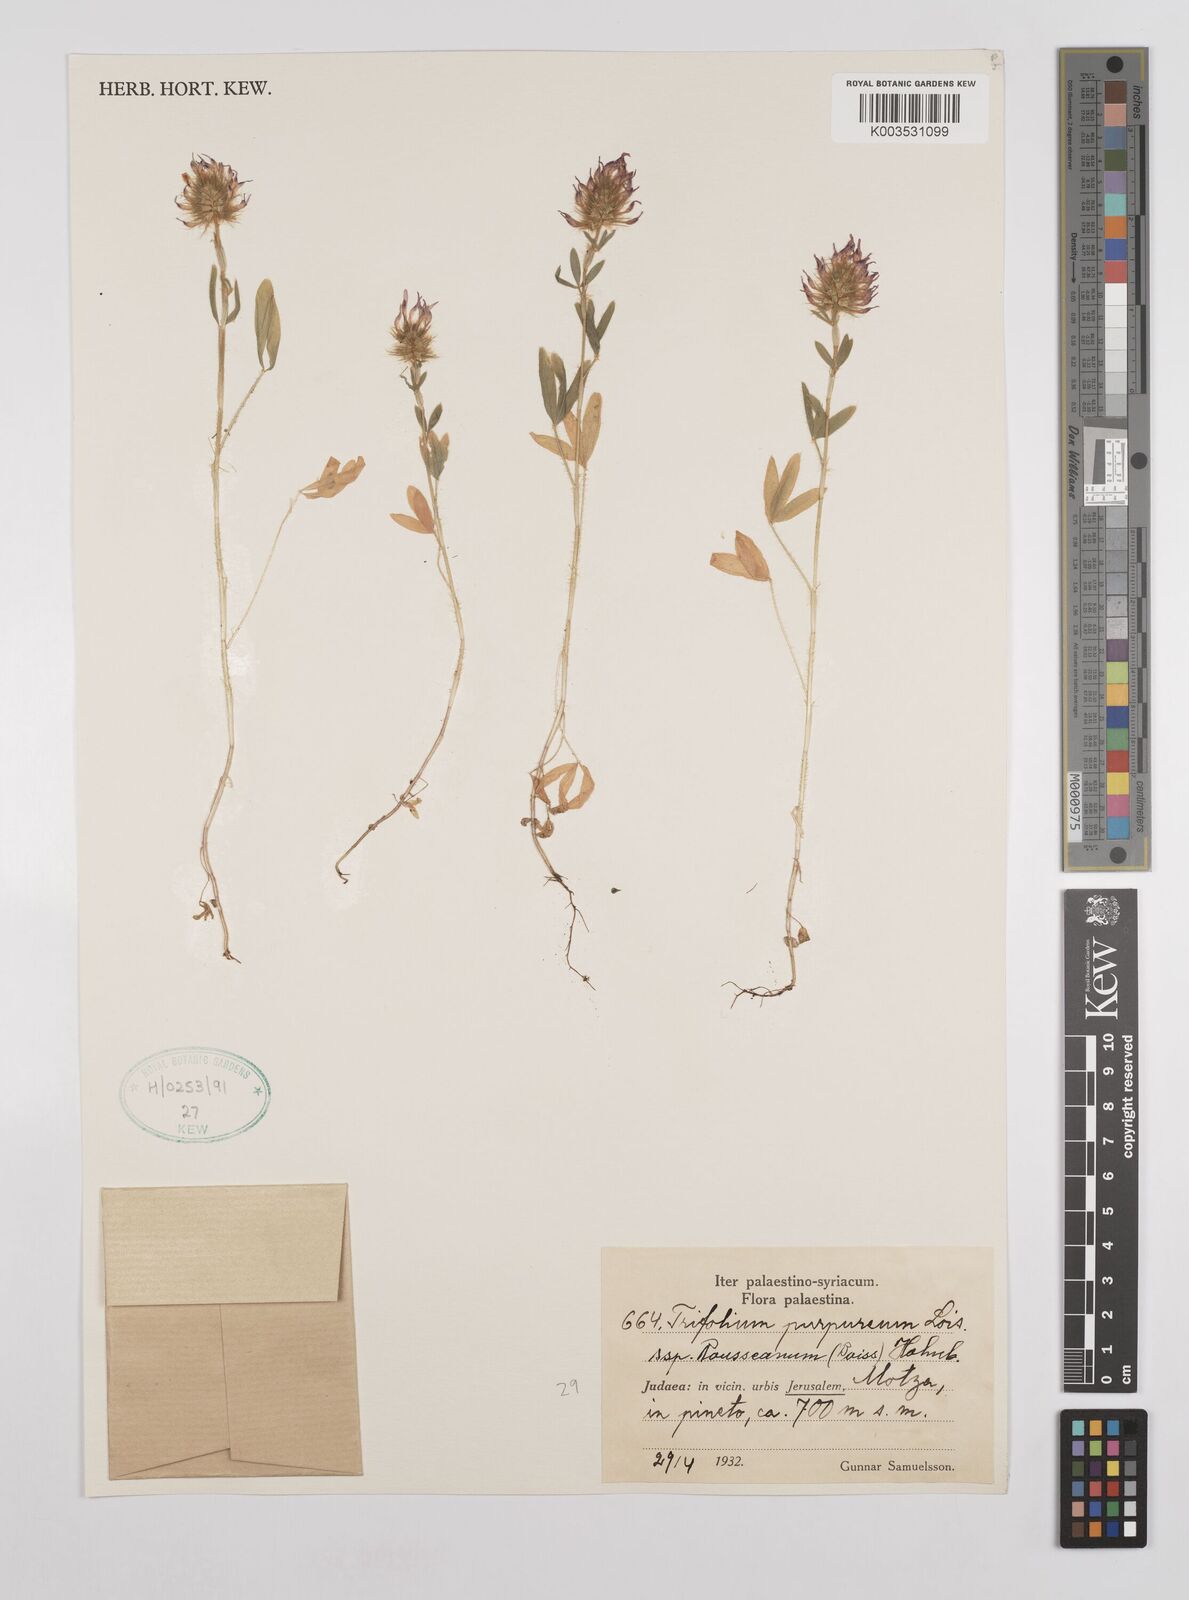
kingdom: Plantae
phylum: Tracheophyta
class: Magnoliopsida
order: Fabales
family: Fabaceae
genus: Trifolium
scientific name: Trifolium purpureum
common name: Purple clover
